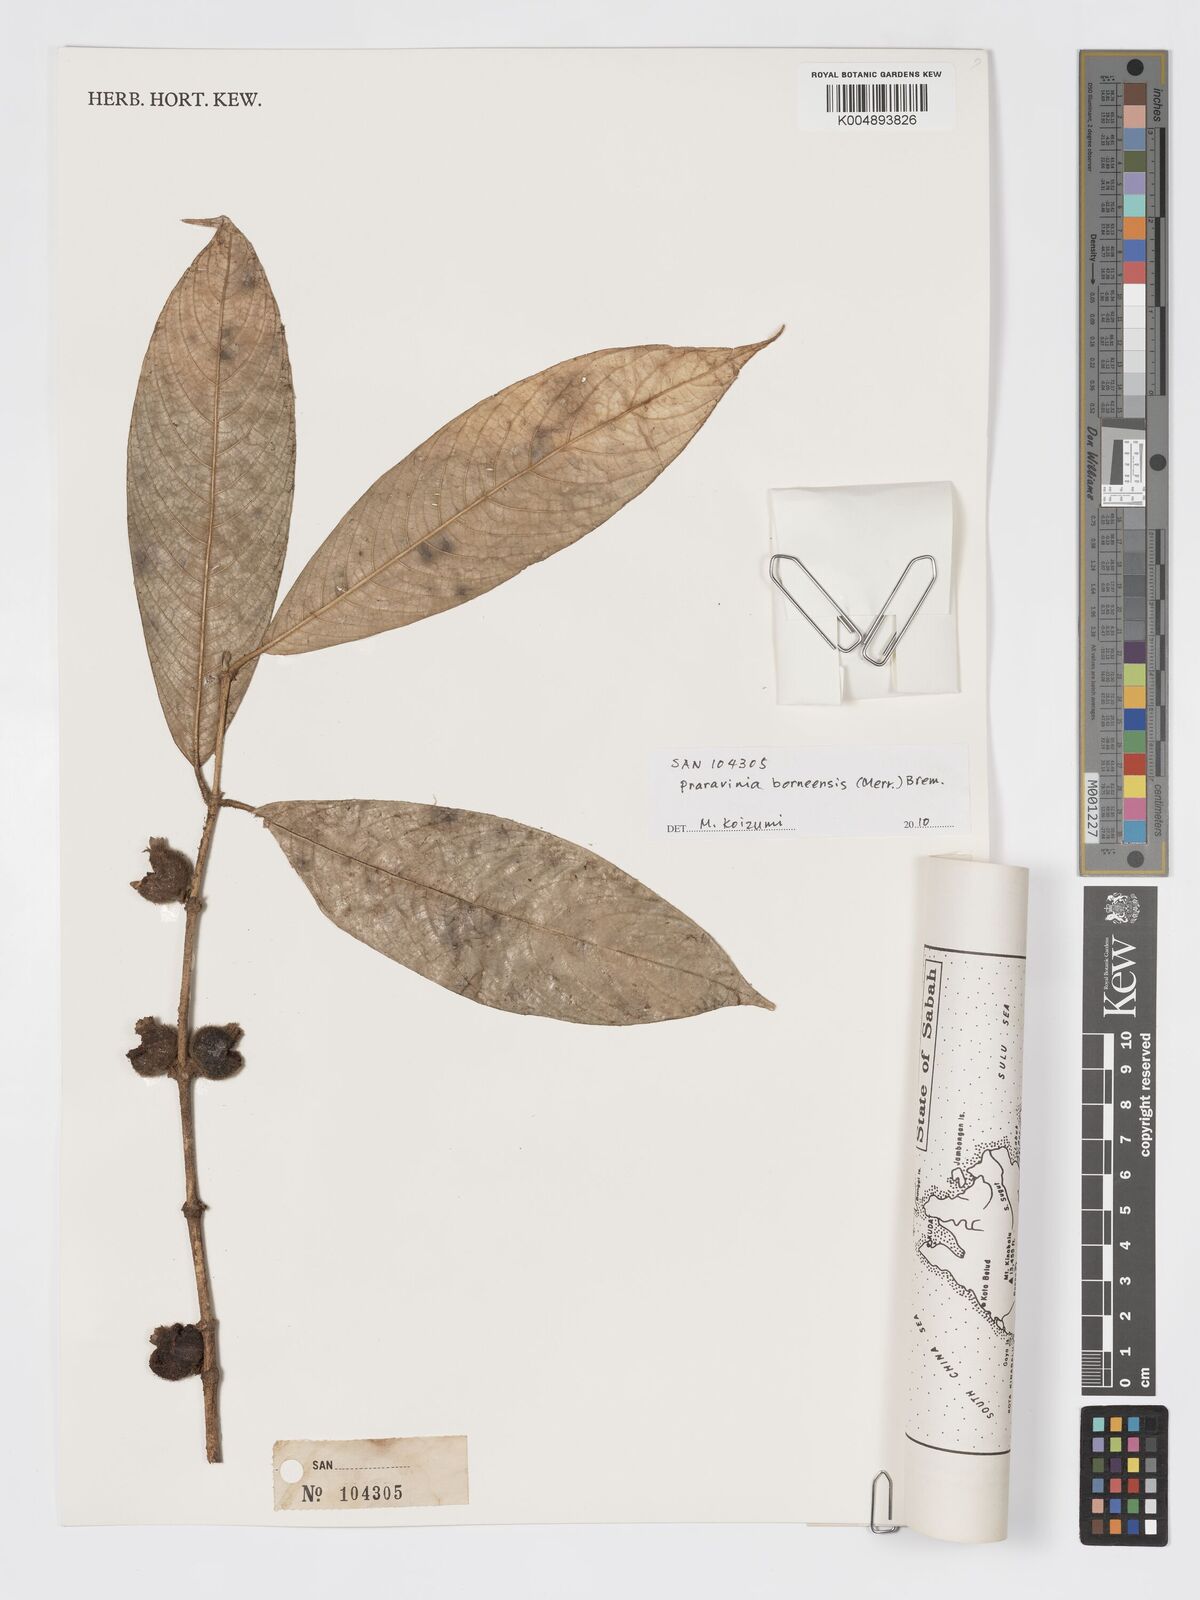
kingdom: Plantae
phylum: Tracheophyta
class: Magnoliopsida
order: Gentianales
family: Rubiaceae
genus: Praravinia
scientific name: Praravinia borneensis
